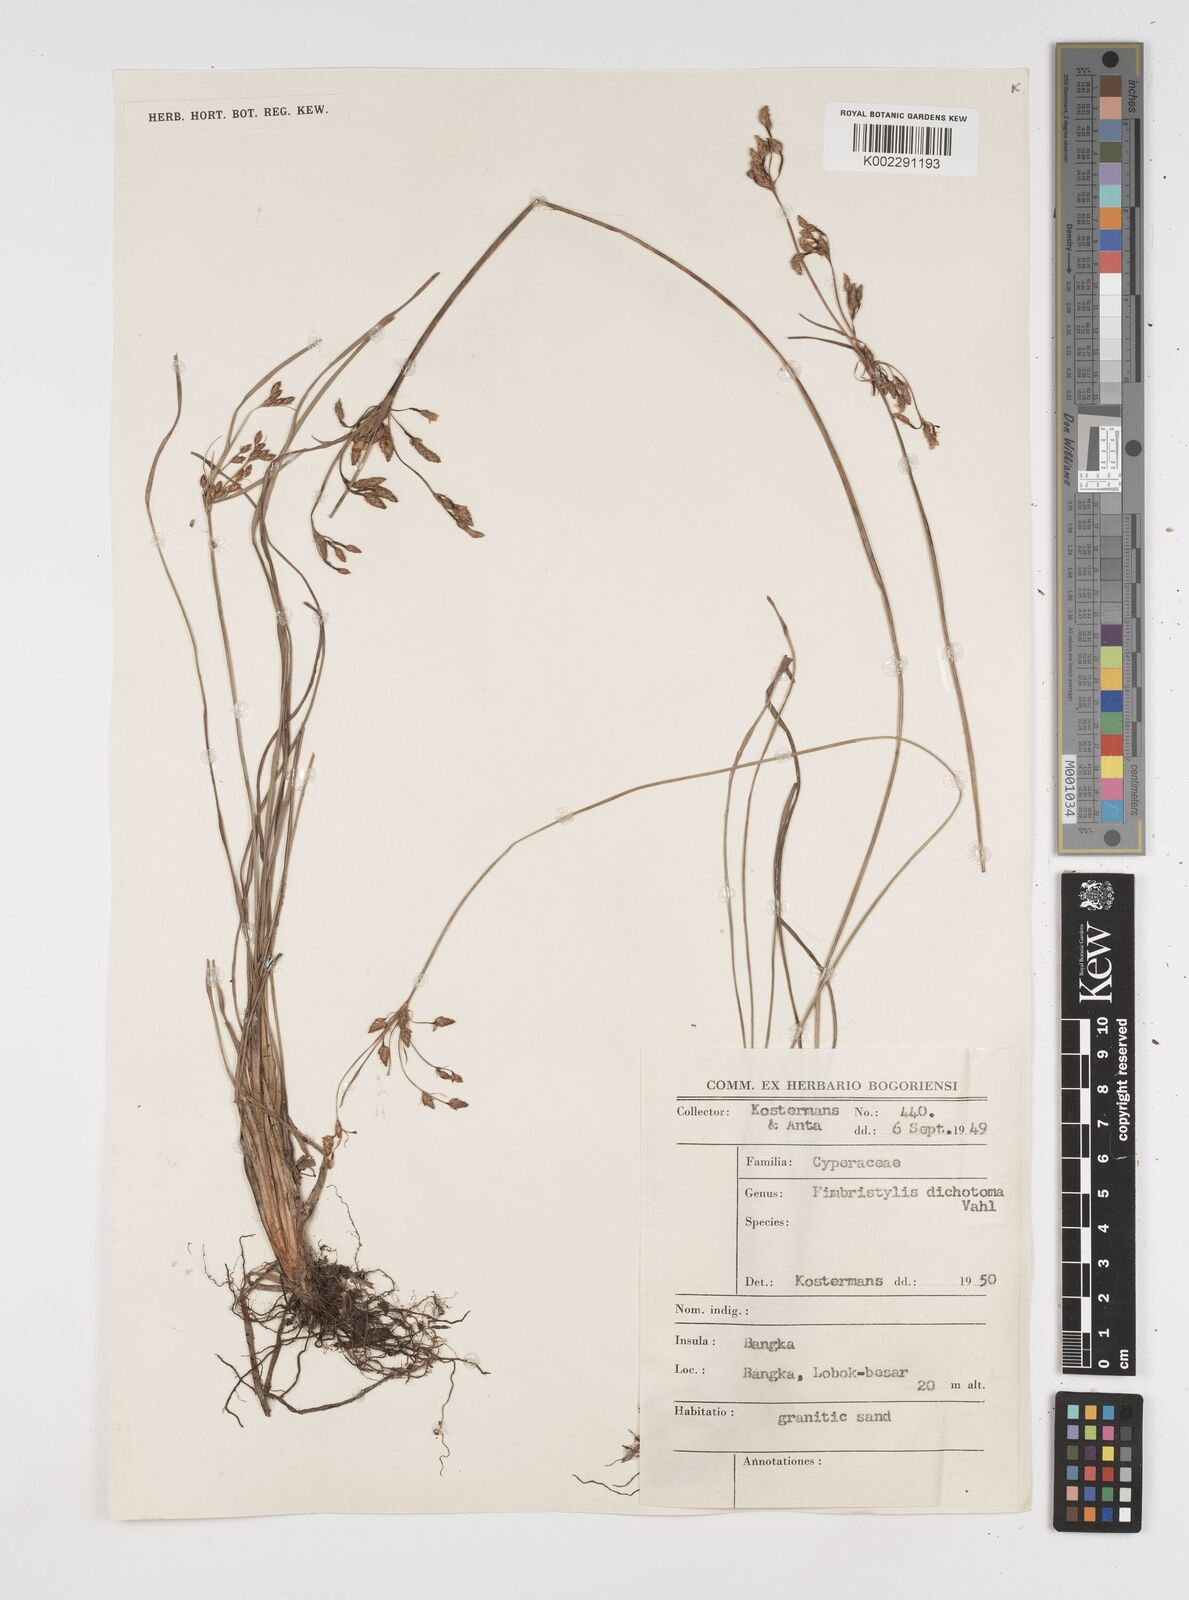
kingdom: Plantae
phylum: Tracheophyta
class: Liliopsida
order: Poales
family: Cyperaceae
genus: Fimbristylis
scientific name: Fimbristylis dichotoma
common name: Forked fimbry
